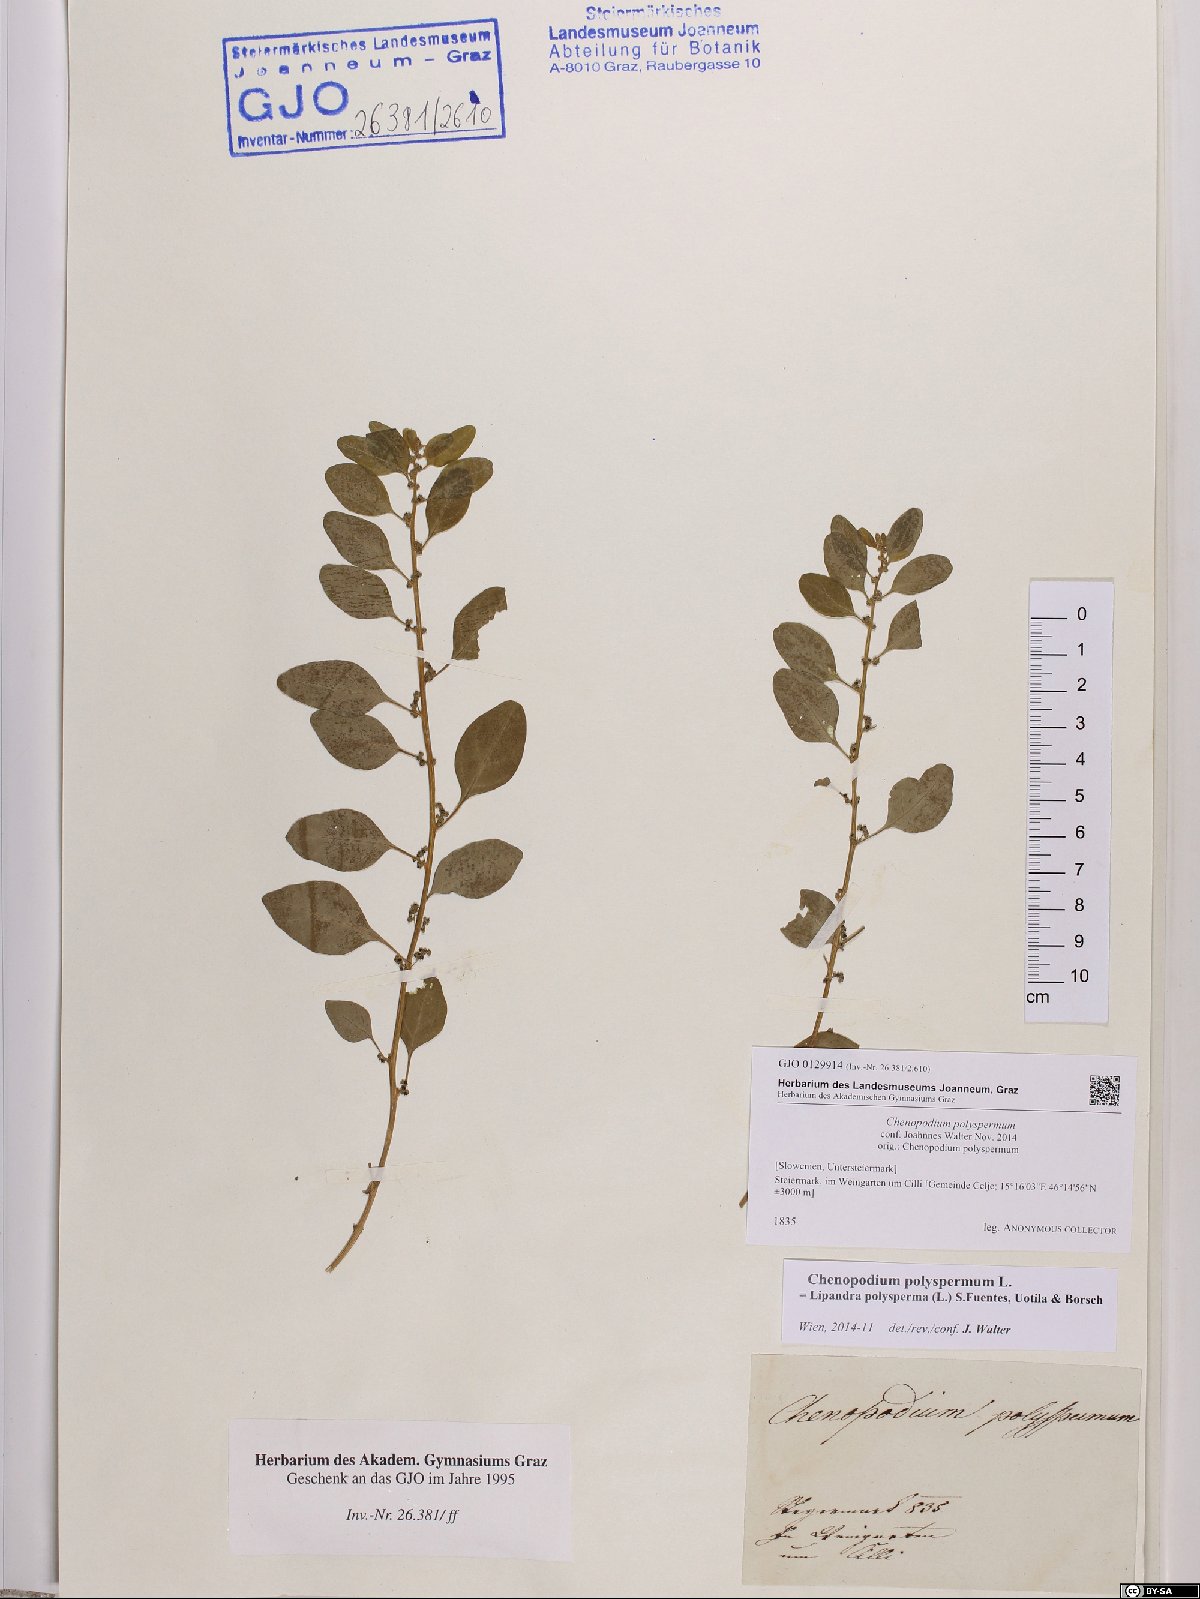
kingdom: Plantae
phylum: Tracheophyta
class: Magnoliopsida
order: Caryophyllales
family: Amaranthaceae
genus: Lipandra
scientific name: Lipandra polysperma
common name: Many-seed goosefoot
